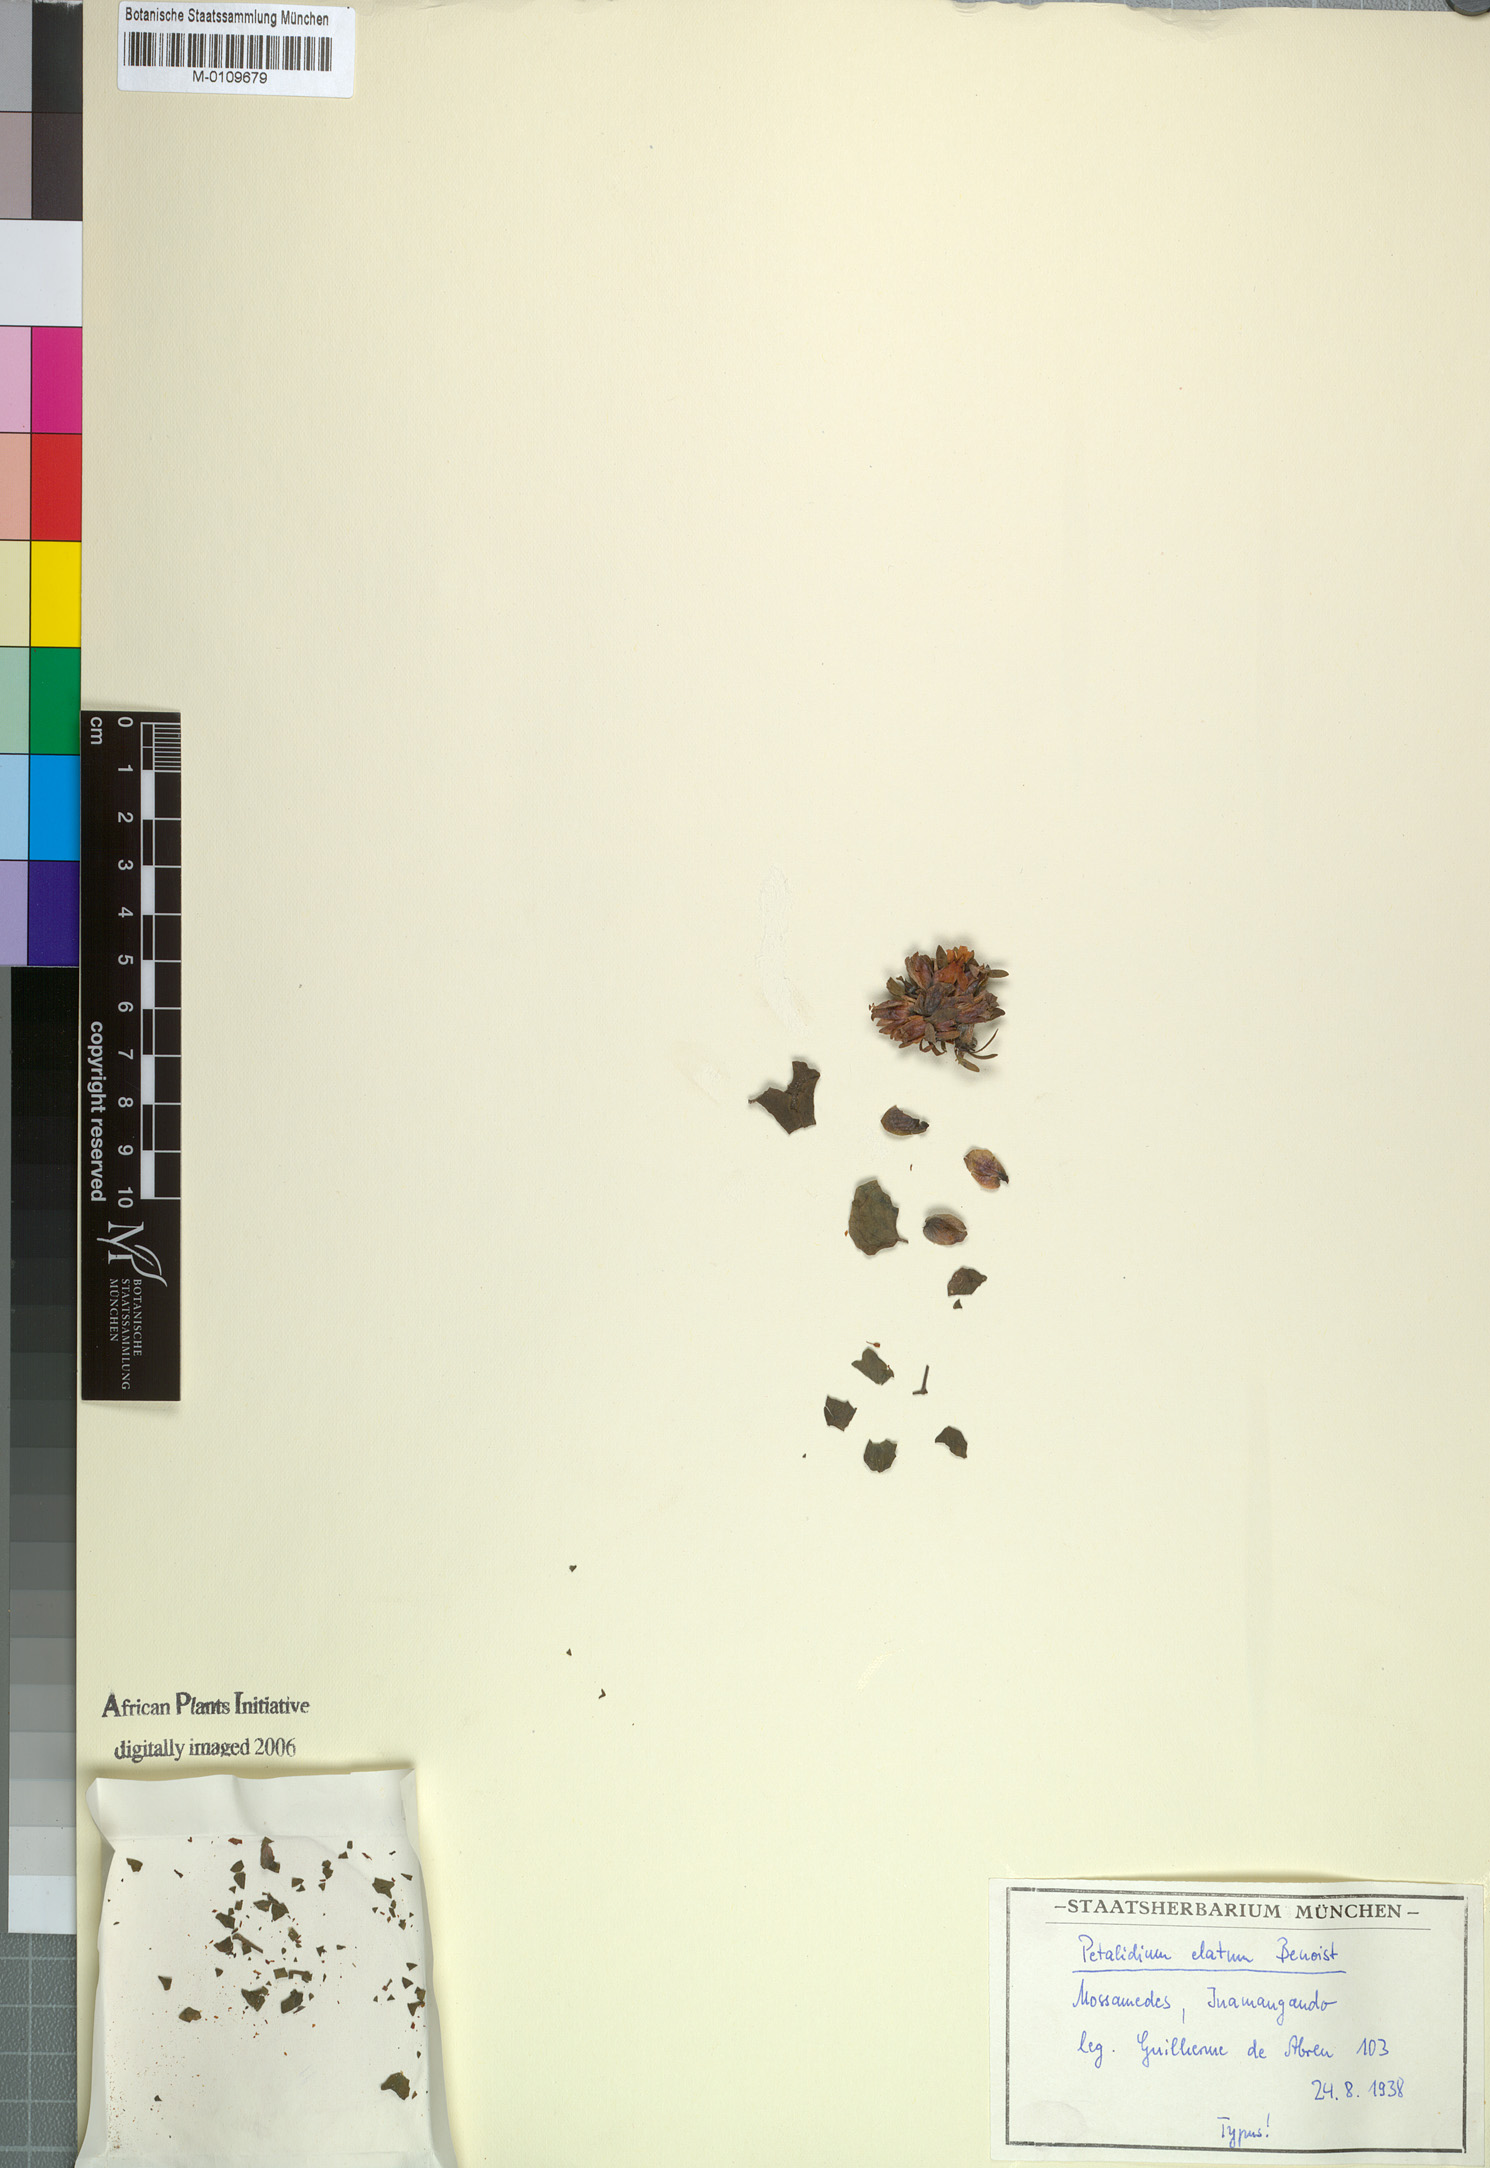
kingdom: Plantae
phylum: Tracheophyta
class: Magnoliopsida
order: Lamiales
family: Acanthaceae
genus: Petalidium
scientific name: Petalidium elatum
